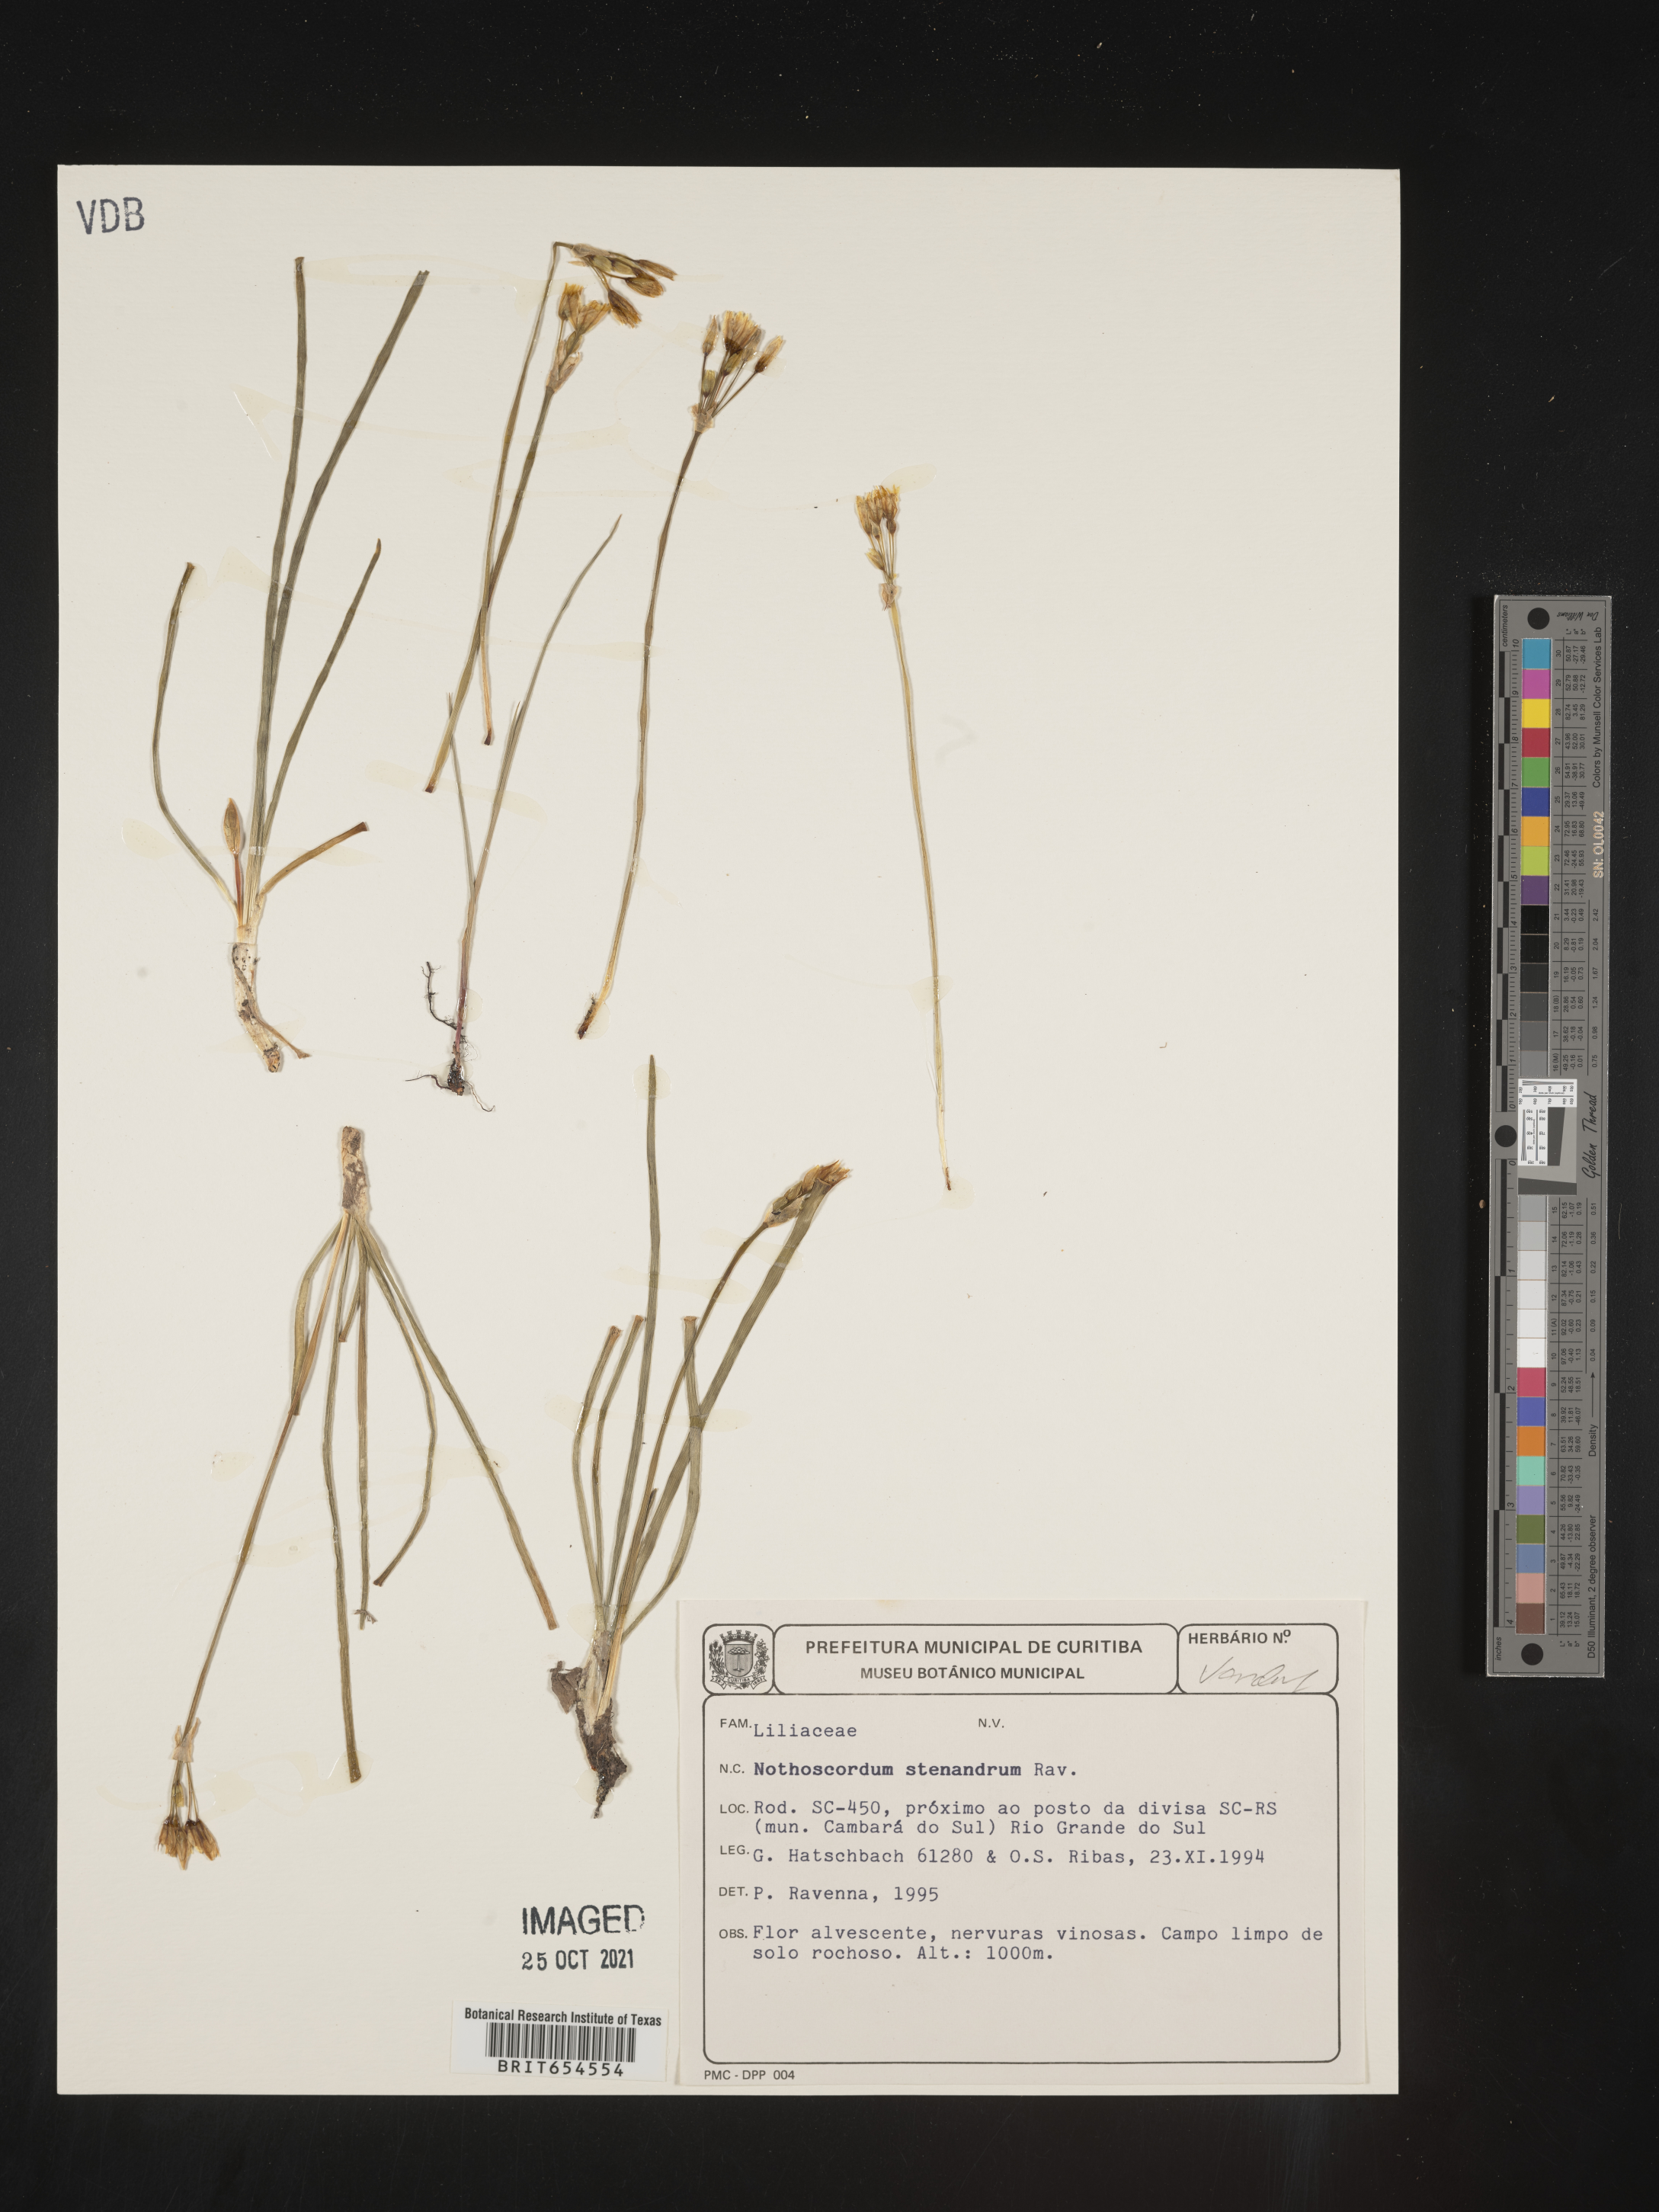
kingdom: Plantae
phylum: Tracheophyta
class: Liliopsida
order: Asparagales
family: Amaryllidaceae
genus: Nothoscordum
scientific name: Nothoscordum stenandrum
